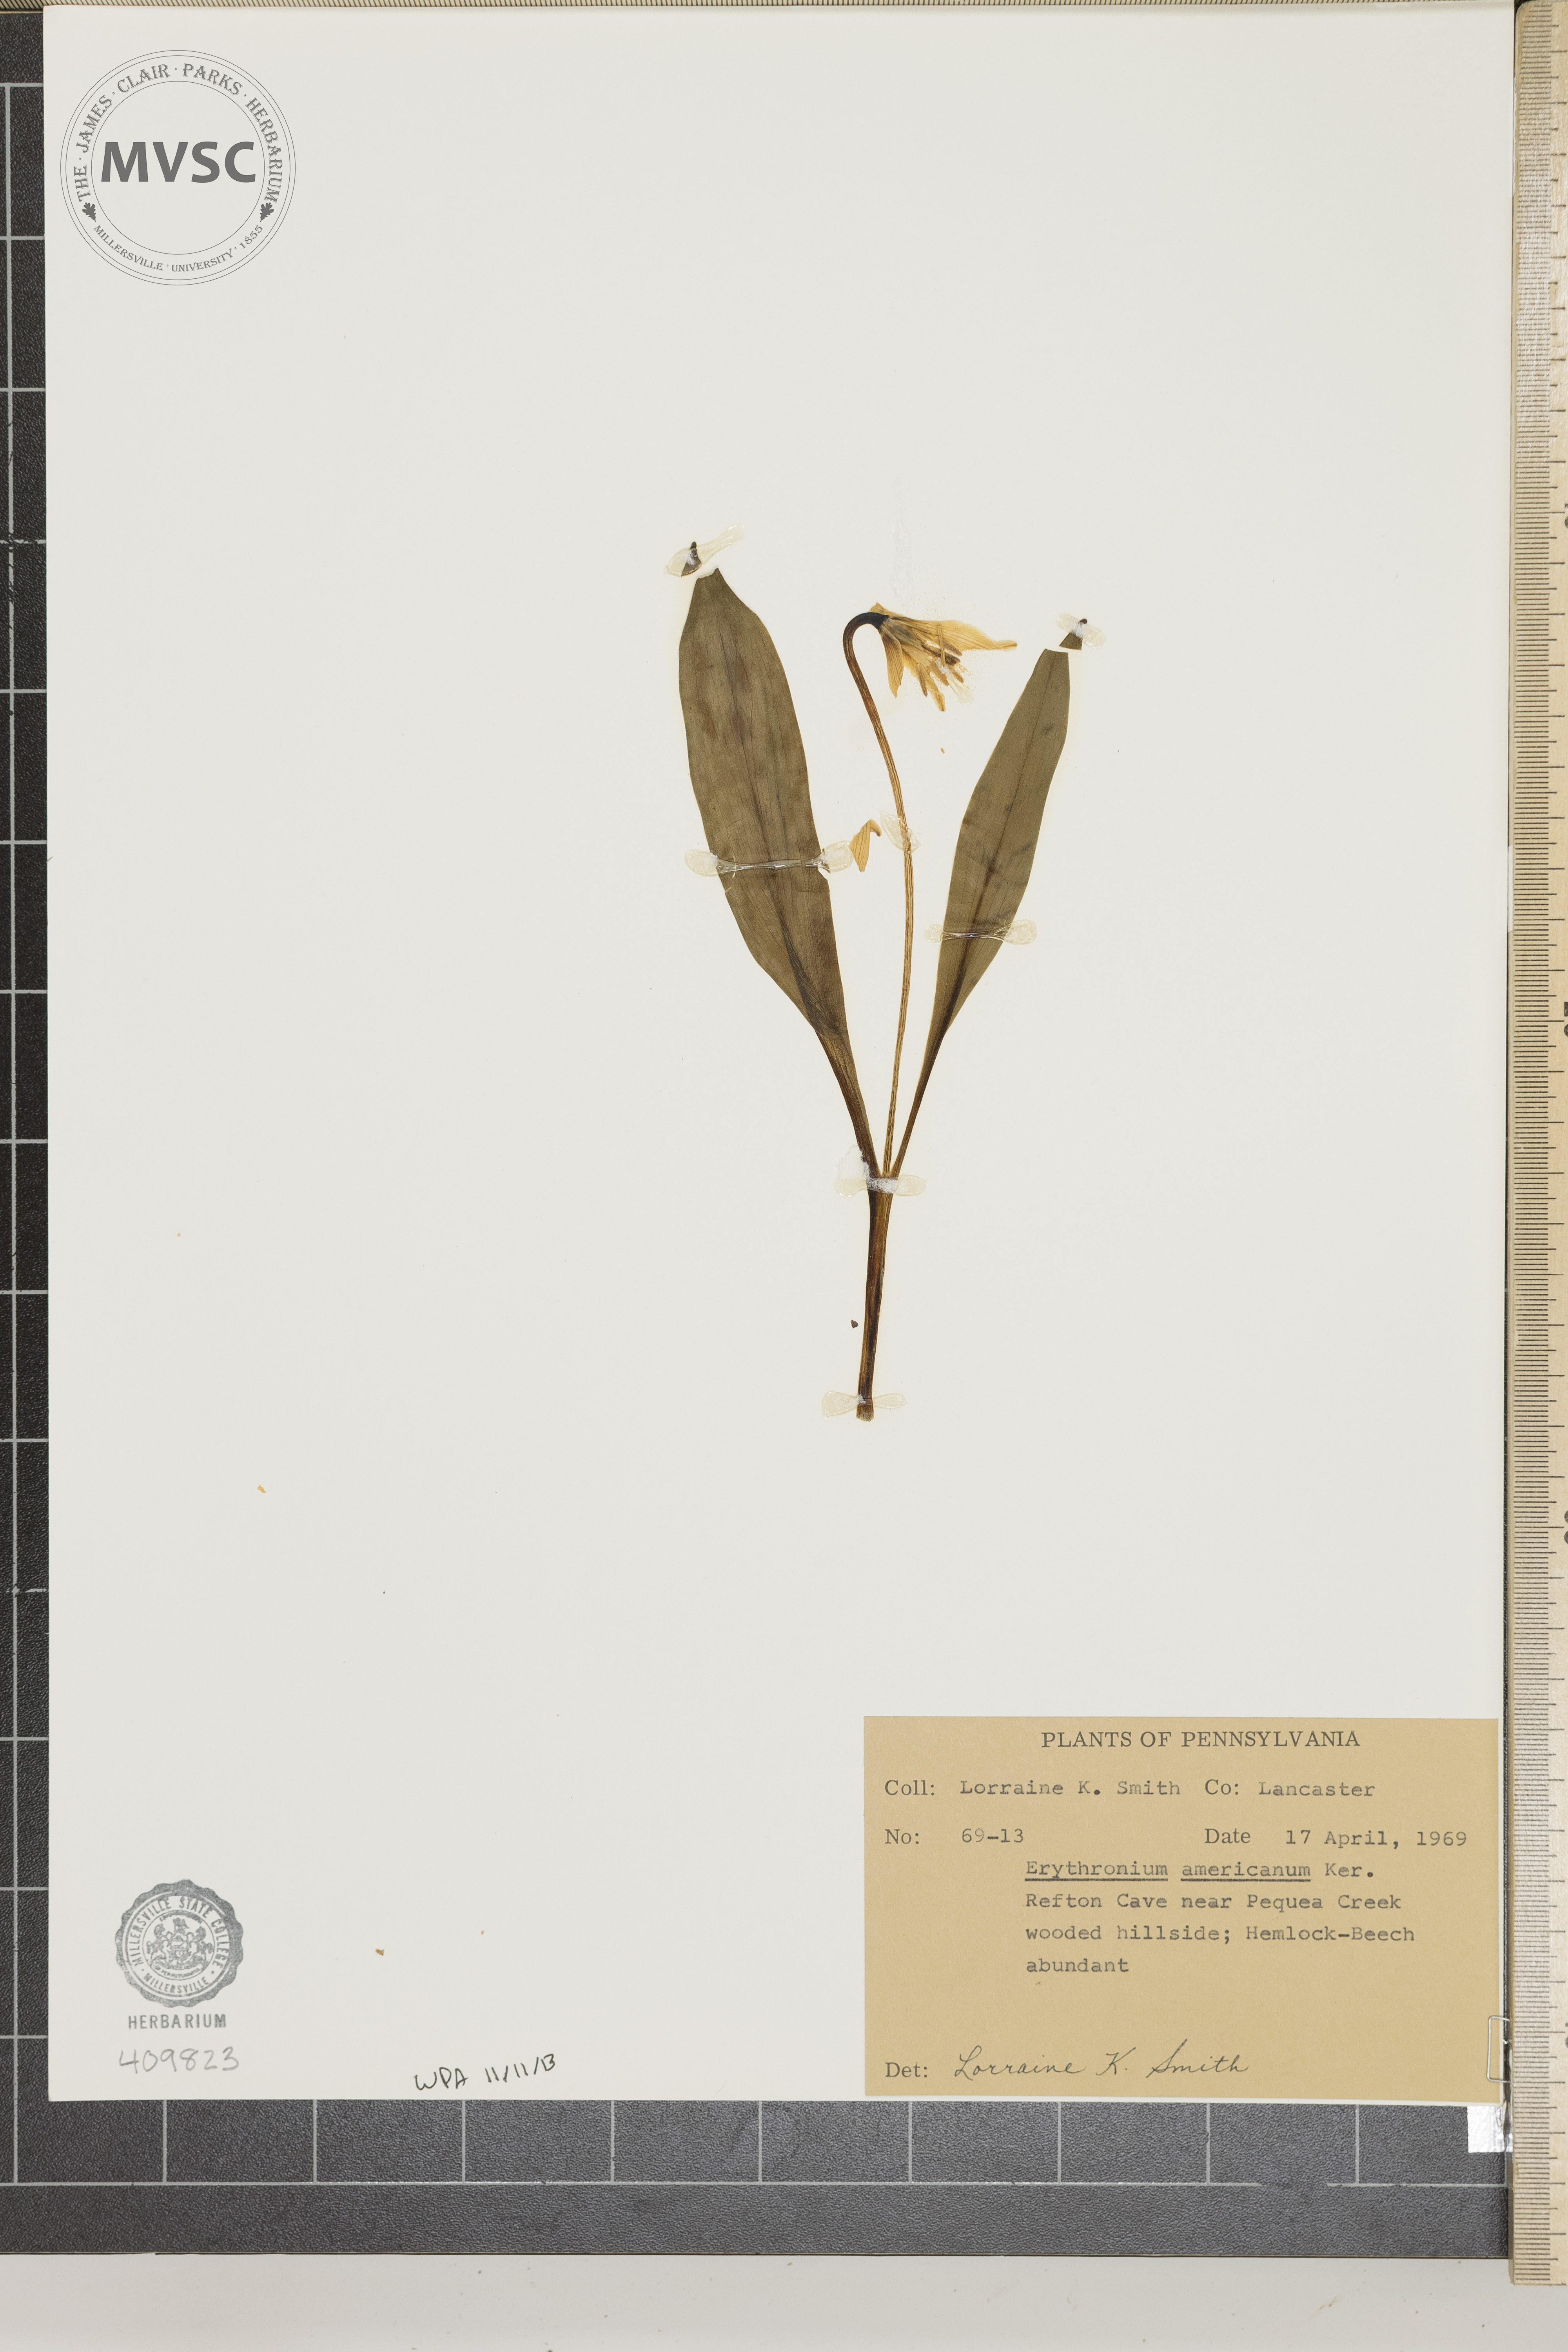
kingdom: Plantae
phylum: Tracheophyta
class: Liliopsida
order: Liliales
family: Liliaceae
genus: Erythronium
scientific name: Erythronium americanum
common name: Yellow adder's-tongue
